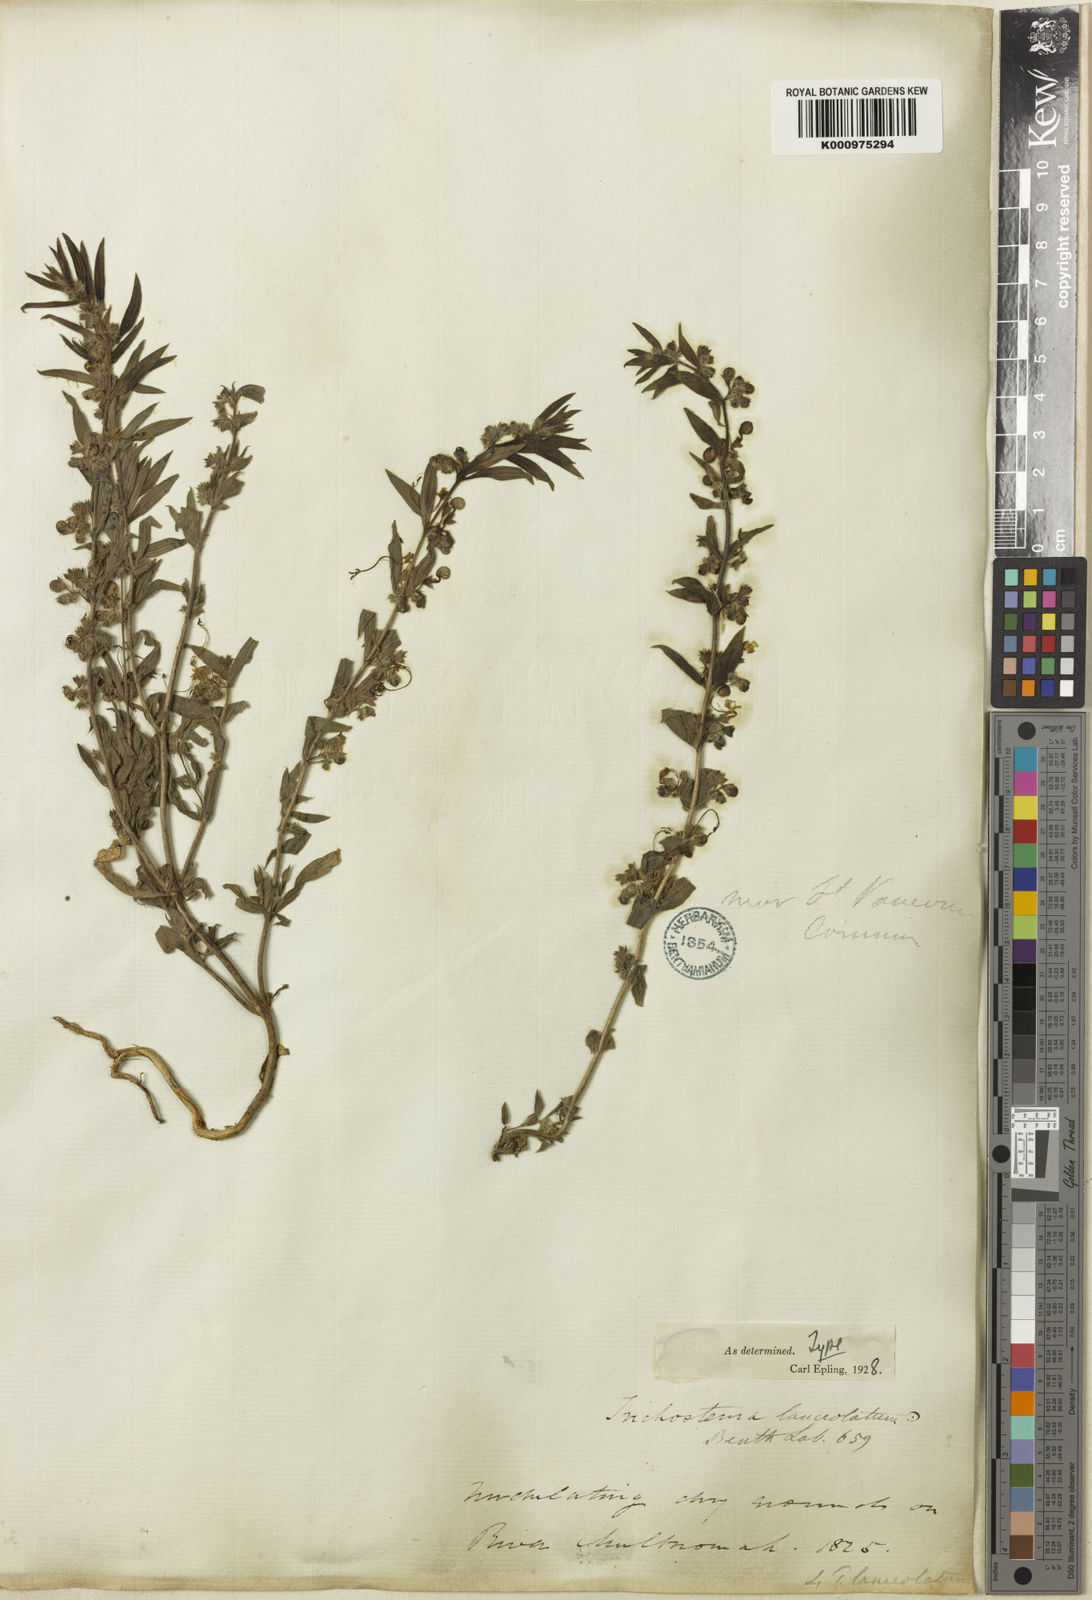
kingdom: Plantae
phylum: Tracheophyta
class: Magnoliopsida
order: Lamiales
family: Lamiaceae
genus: Trichostema
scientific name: Trichostema lanceolatum
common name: Vinegar-weed
